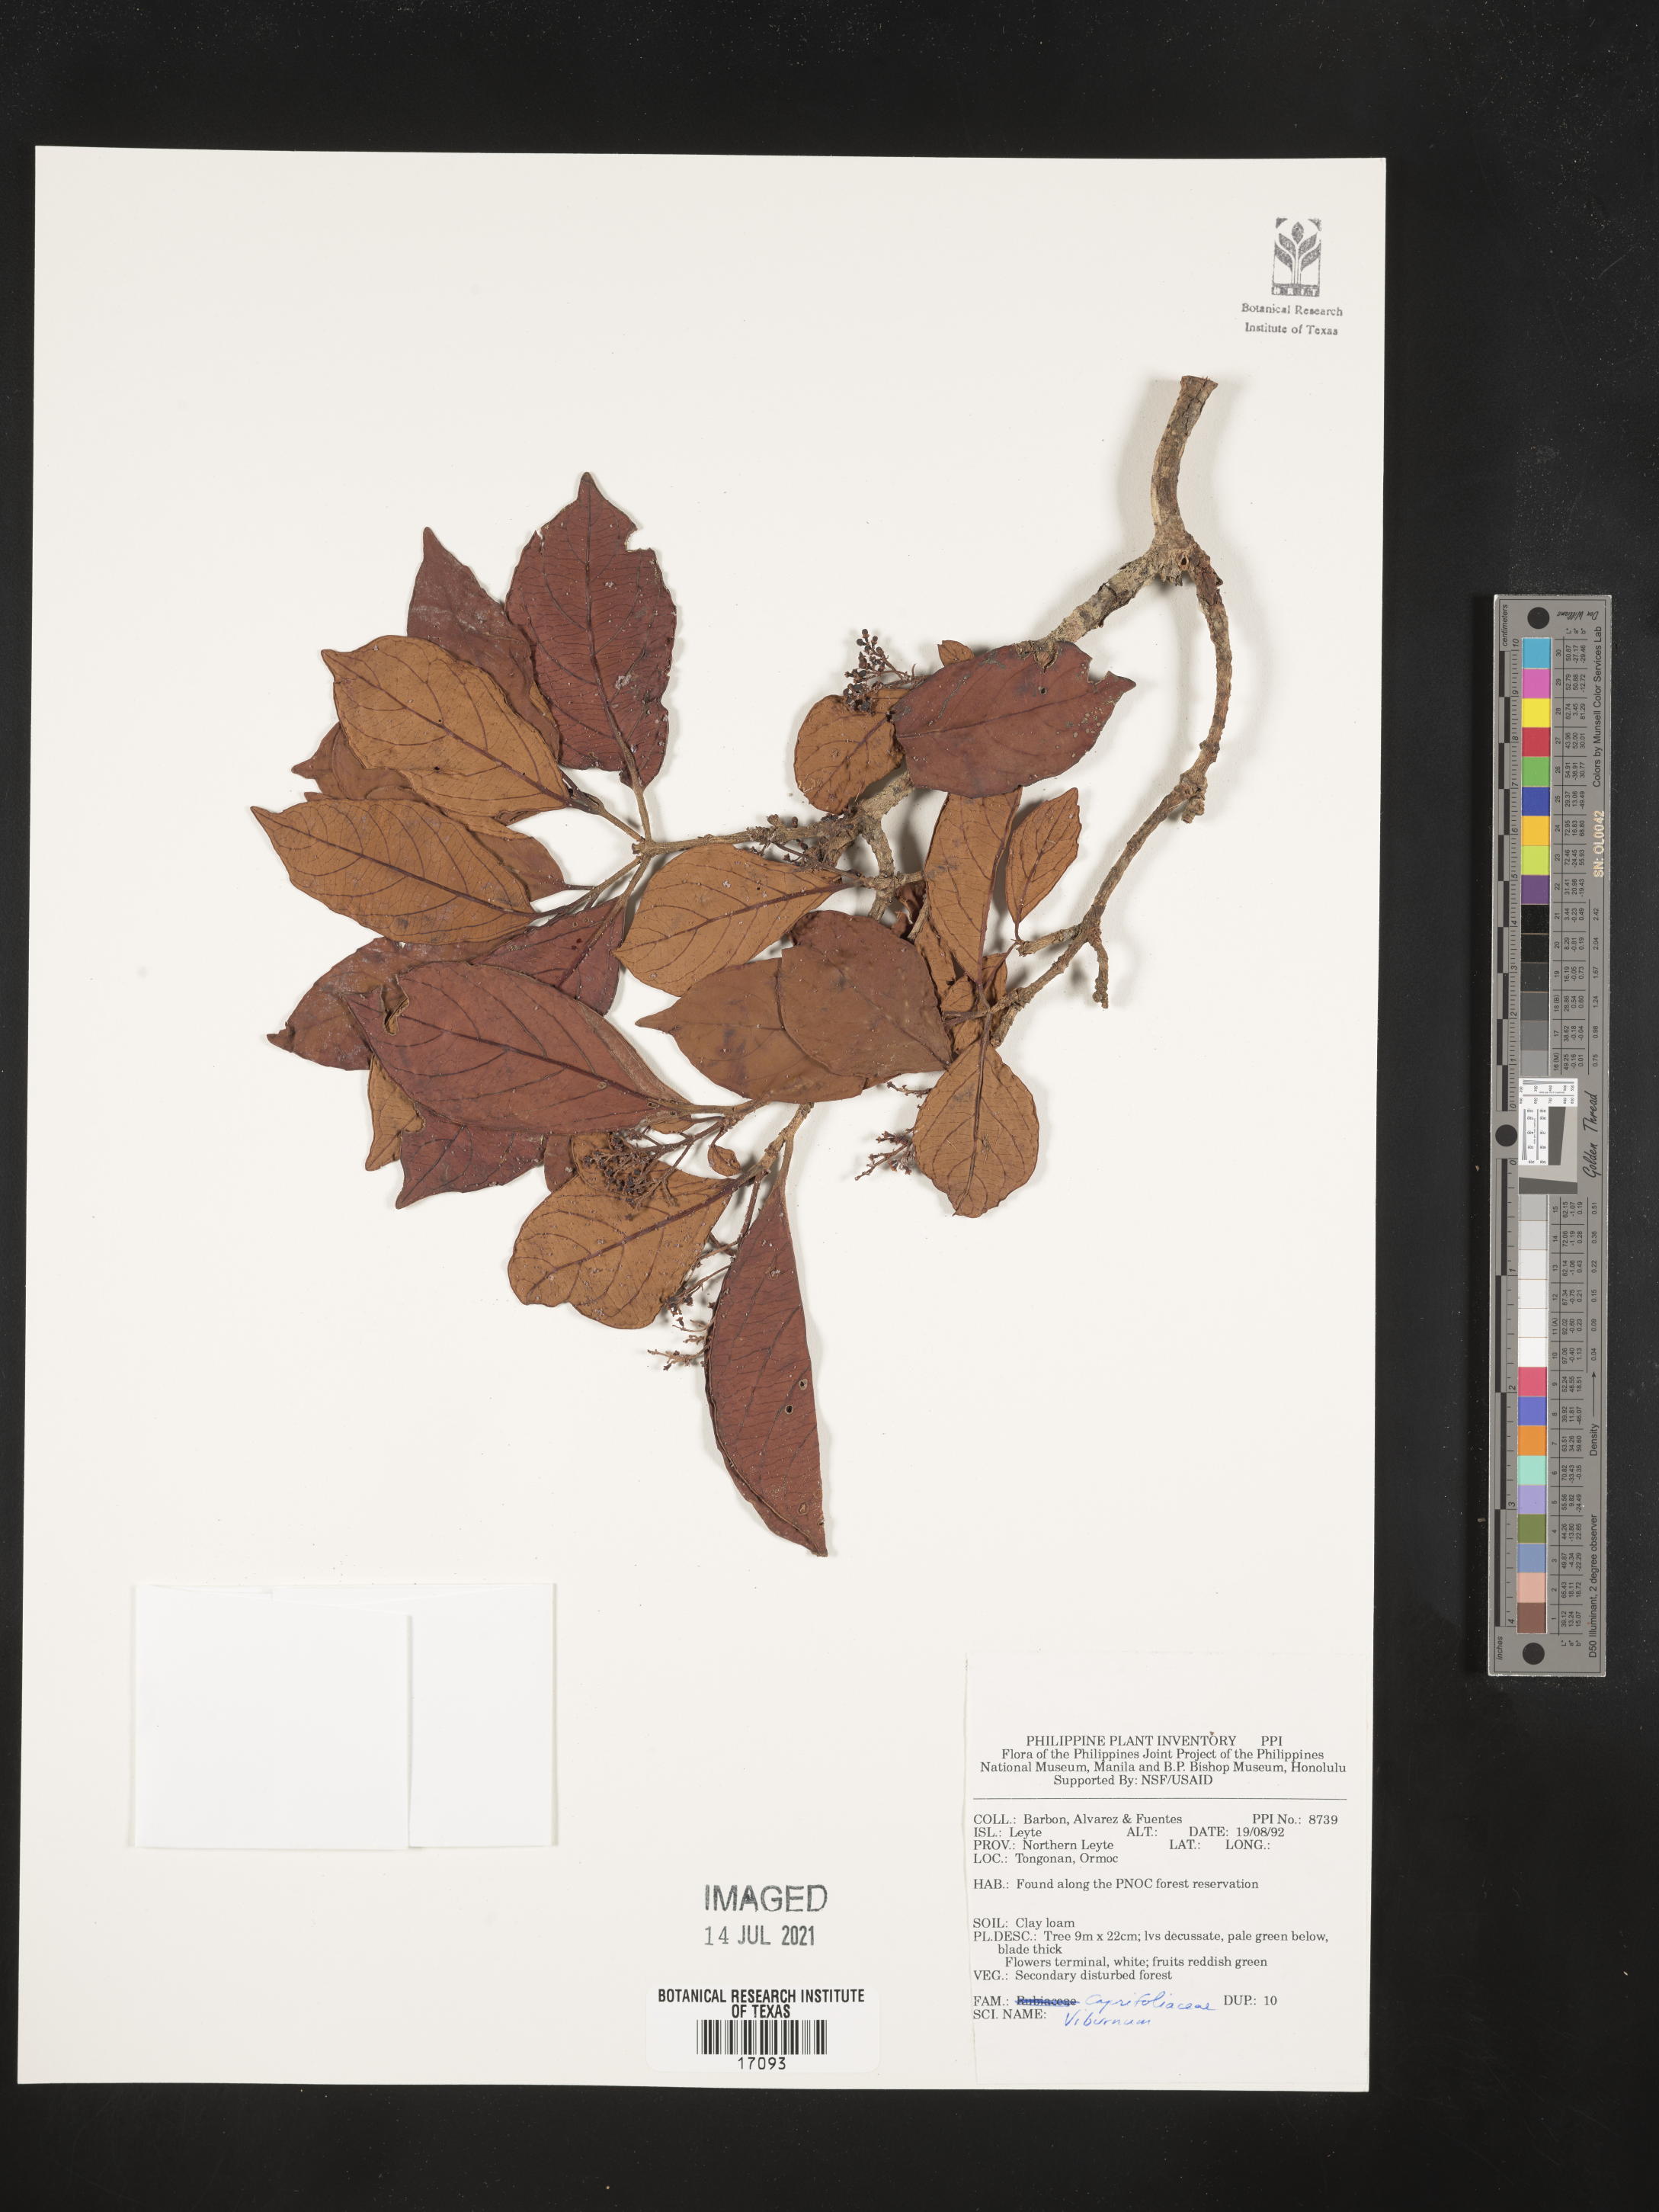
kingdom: Plantae
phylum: Tracheophyta
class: Magnoliopsida
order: Dipsacales
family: Viburnaceae
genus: Viburnum
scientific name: Viburnum
